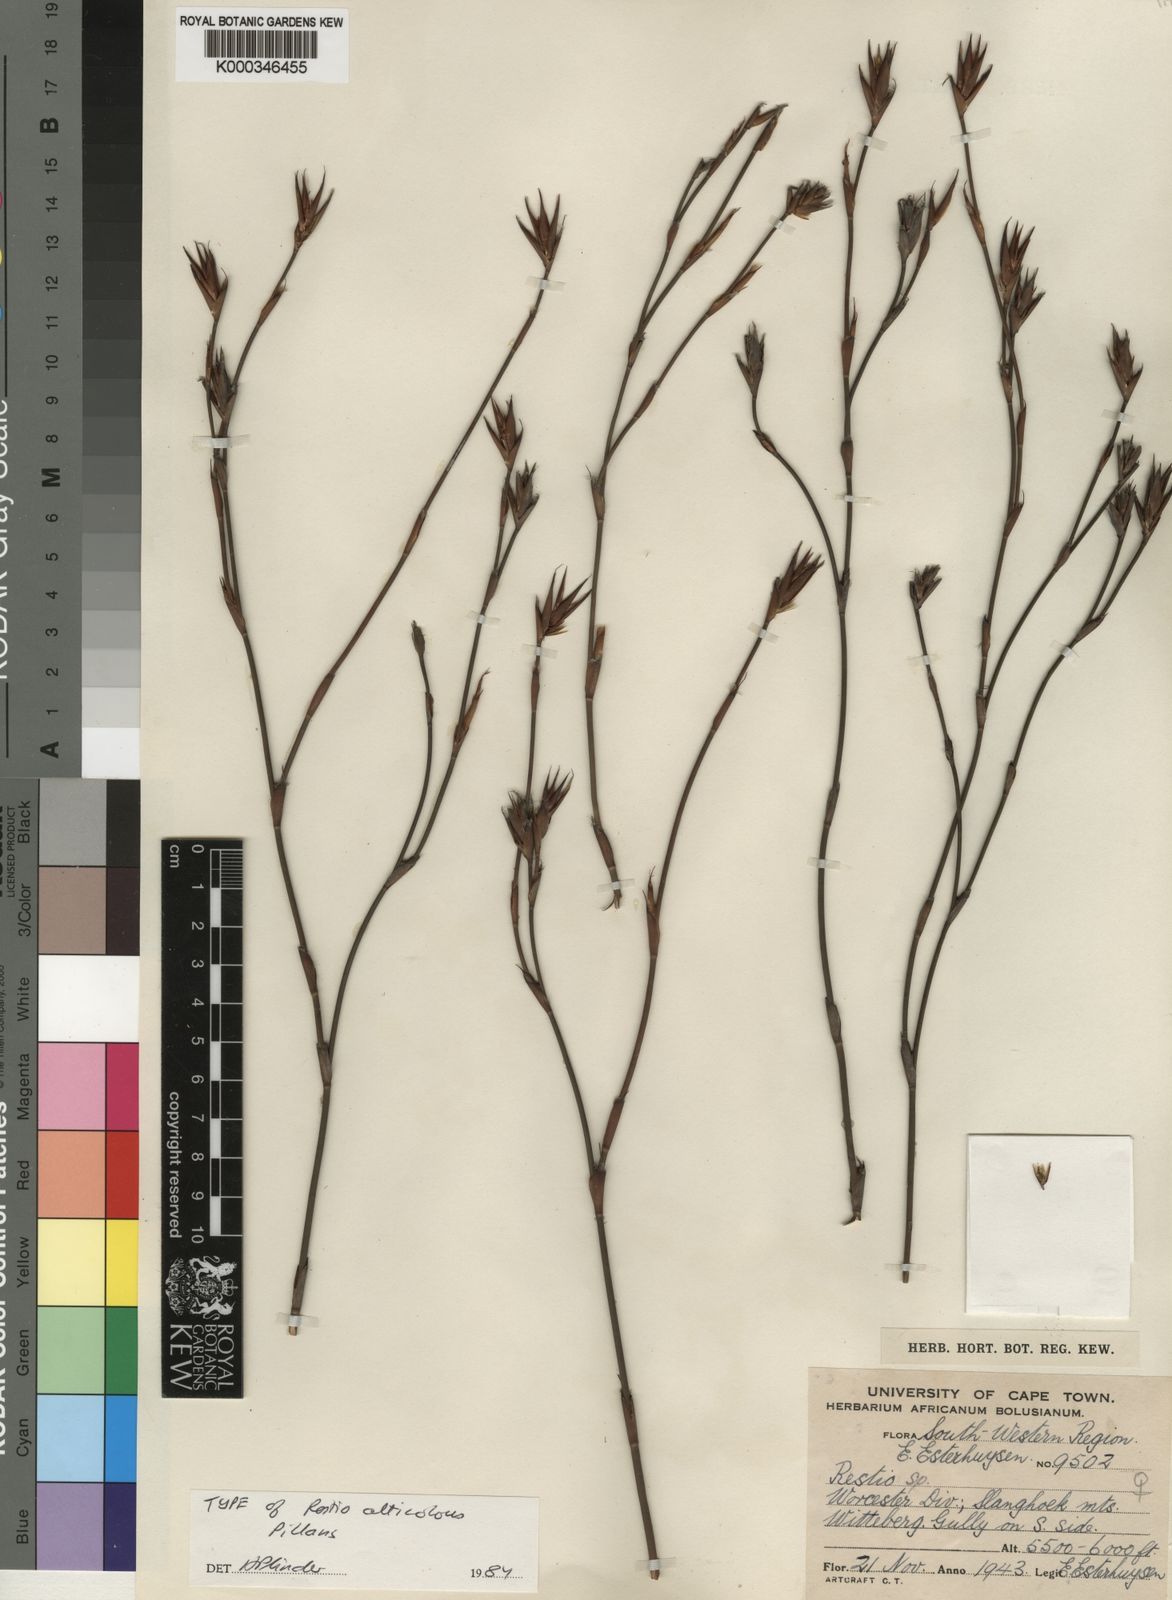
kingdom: Plantae
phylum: Tracheophyta
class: Liliopsida
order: Poales
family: Restionaceae
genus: Restio
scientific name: Restio alticola
